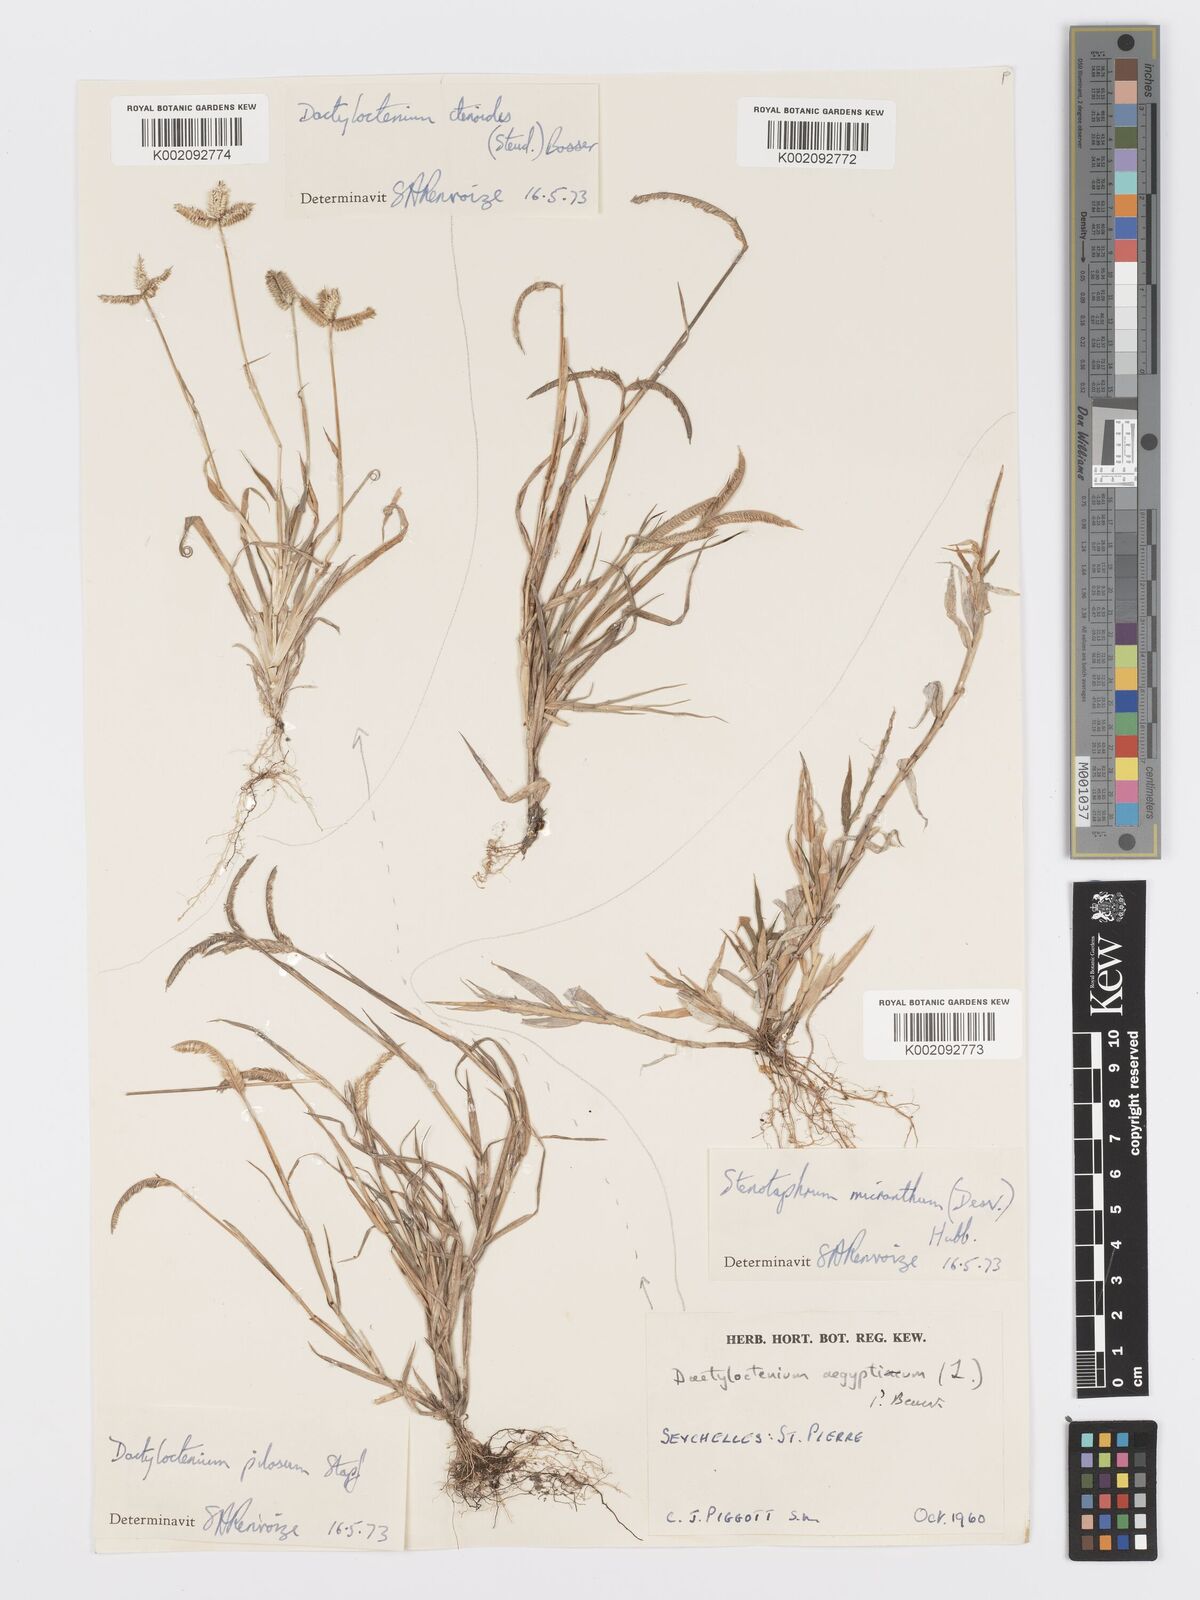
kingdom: Plantae
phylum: Tracheophyta
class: Liliopsida
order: Poales
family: Poaceae
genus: Dactyloctenium
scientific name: Dactyloctenium ctenoides
